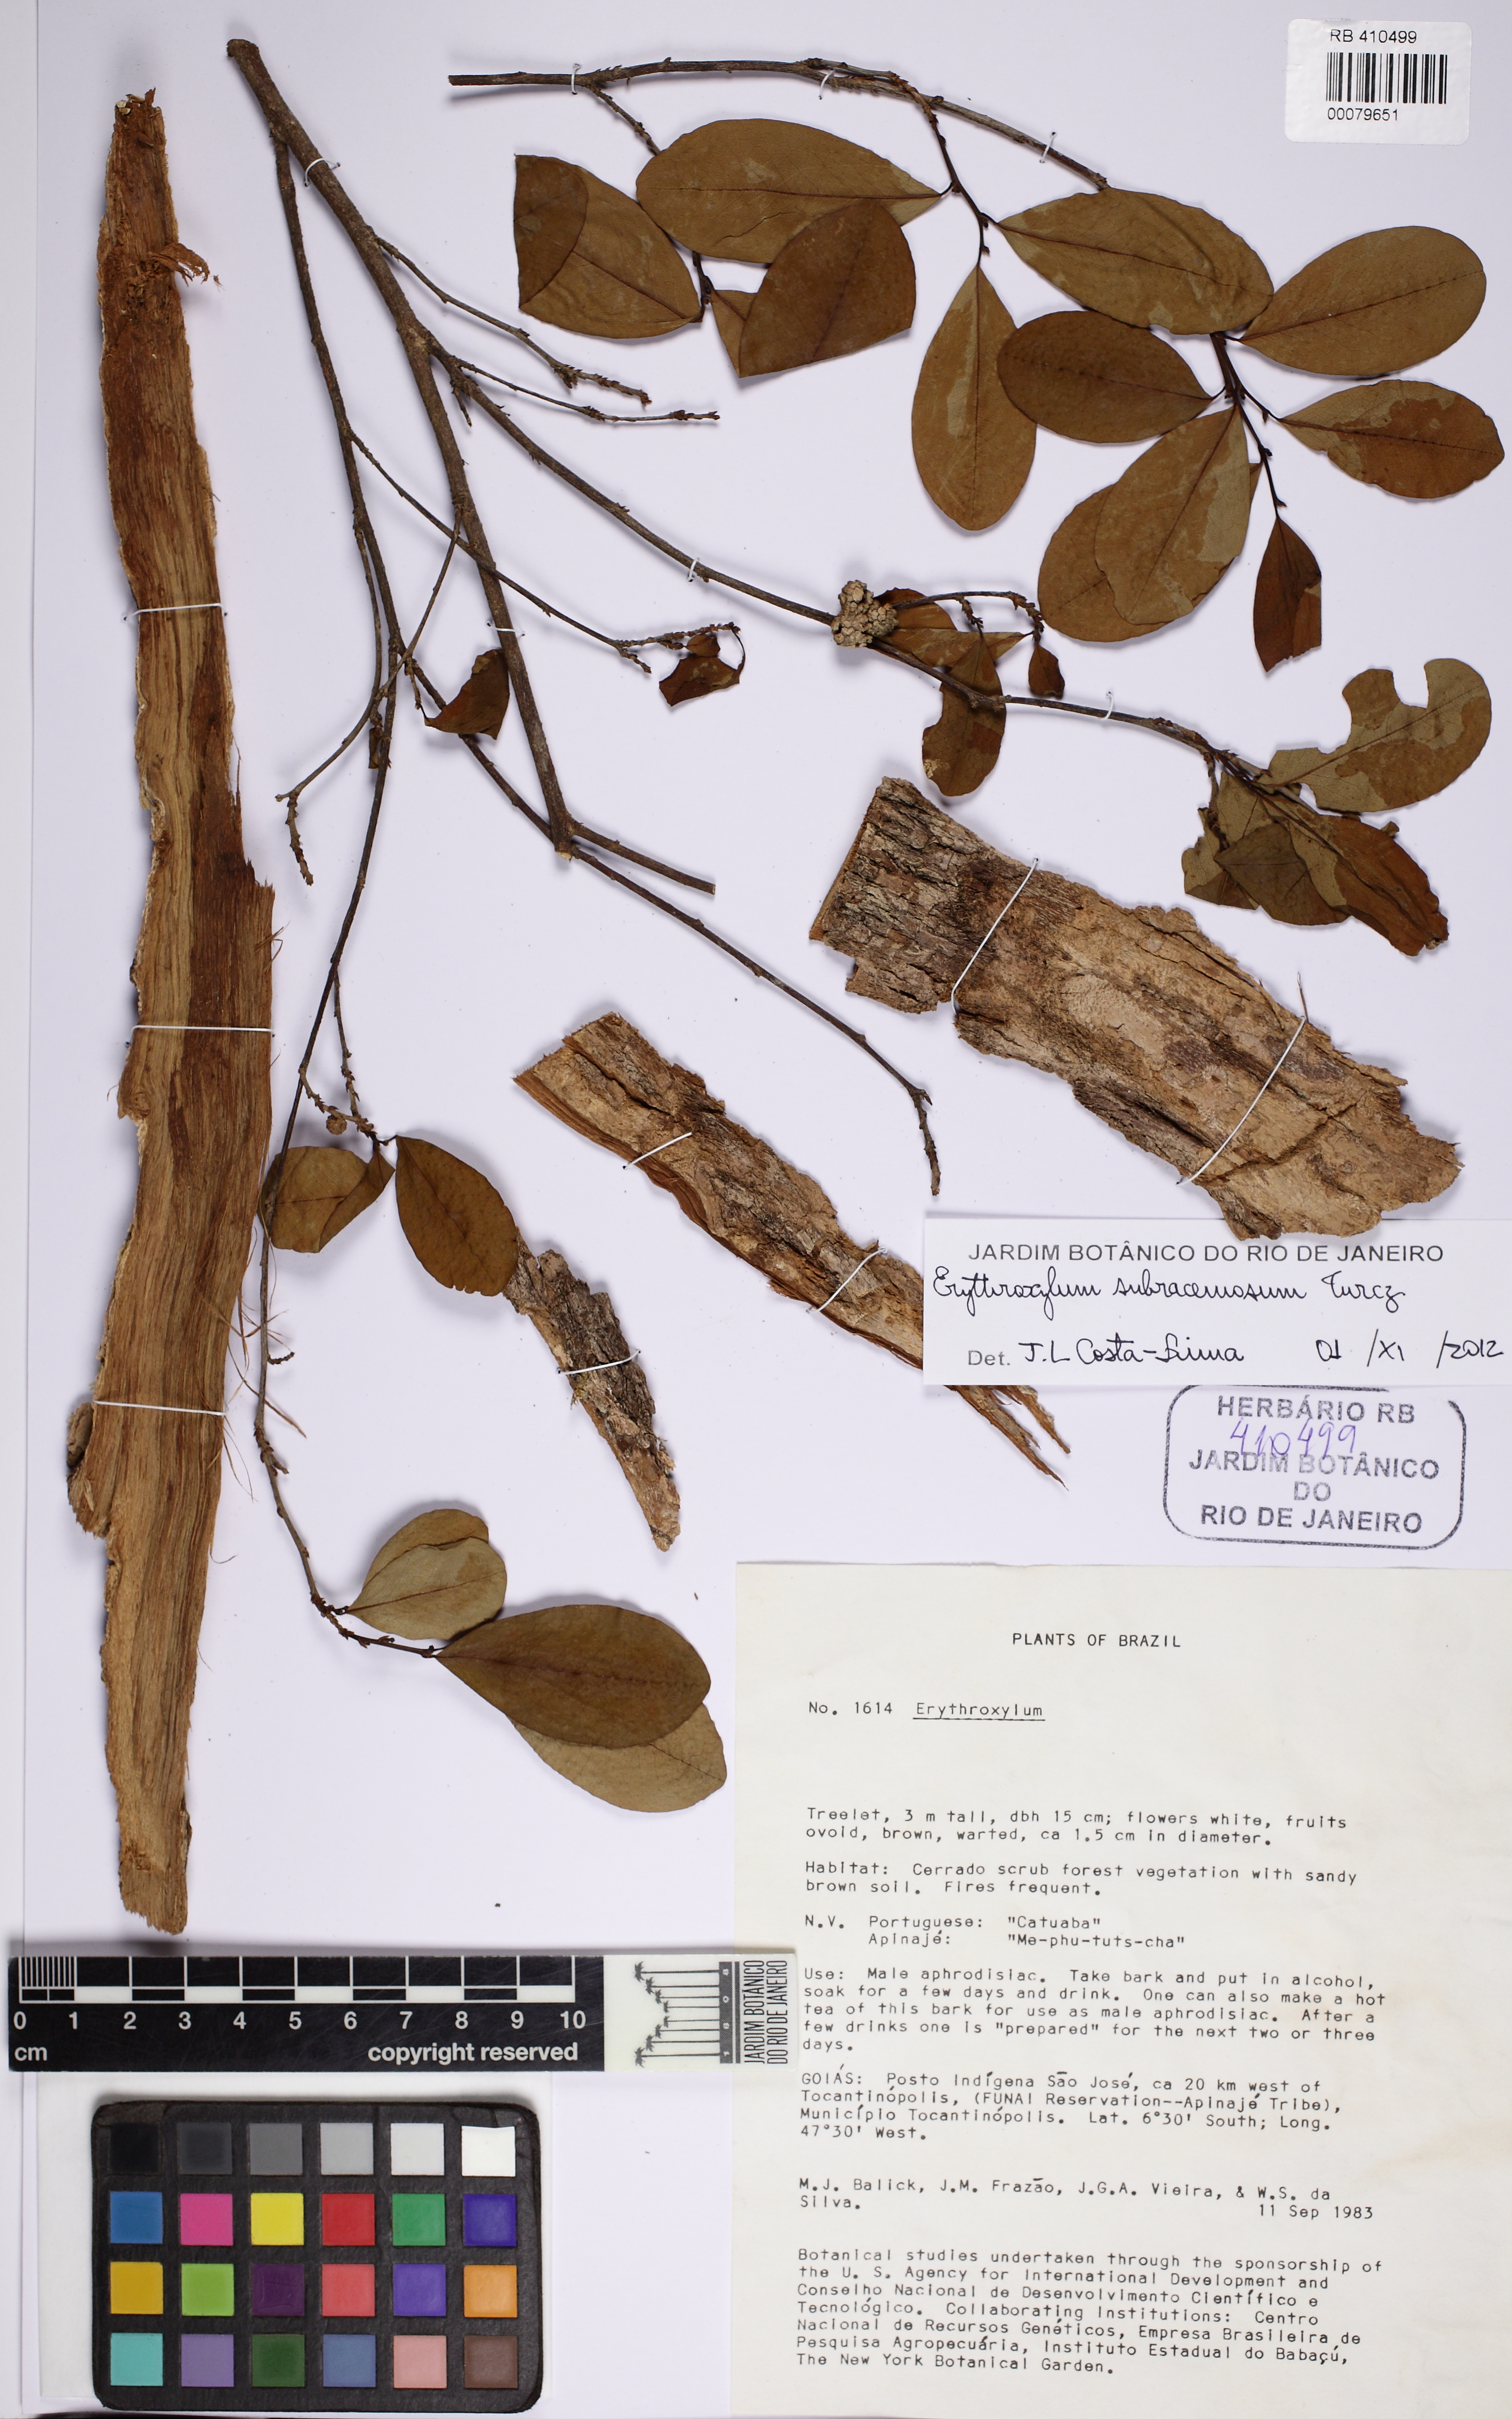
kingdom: Plantae
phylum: Tracheophyta
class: Magnoliopsida
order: Malpighiales
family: Erythroxylaceae
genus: Erythroxylum
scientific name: Erythroxylum subracemosum
